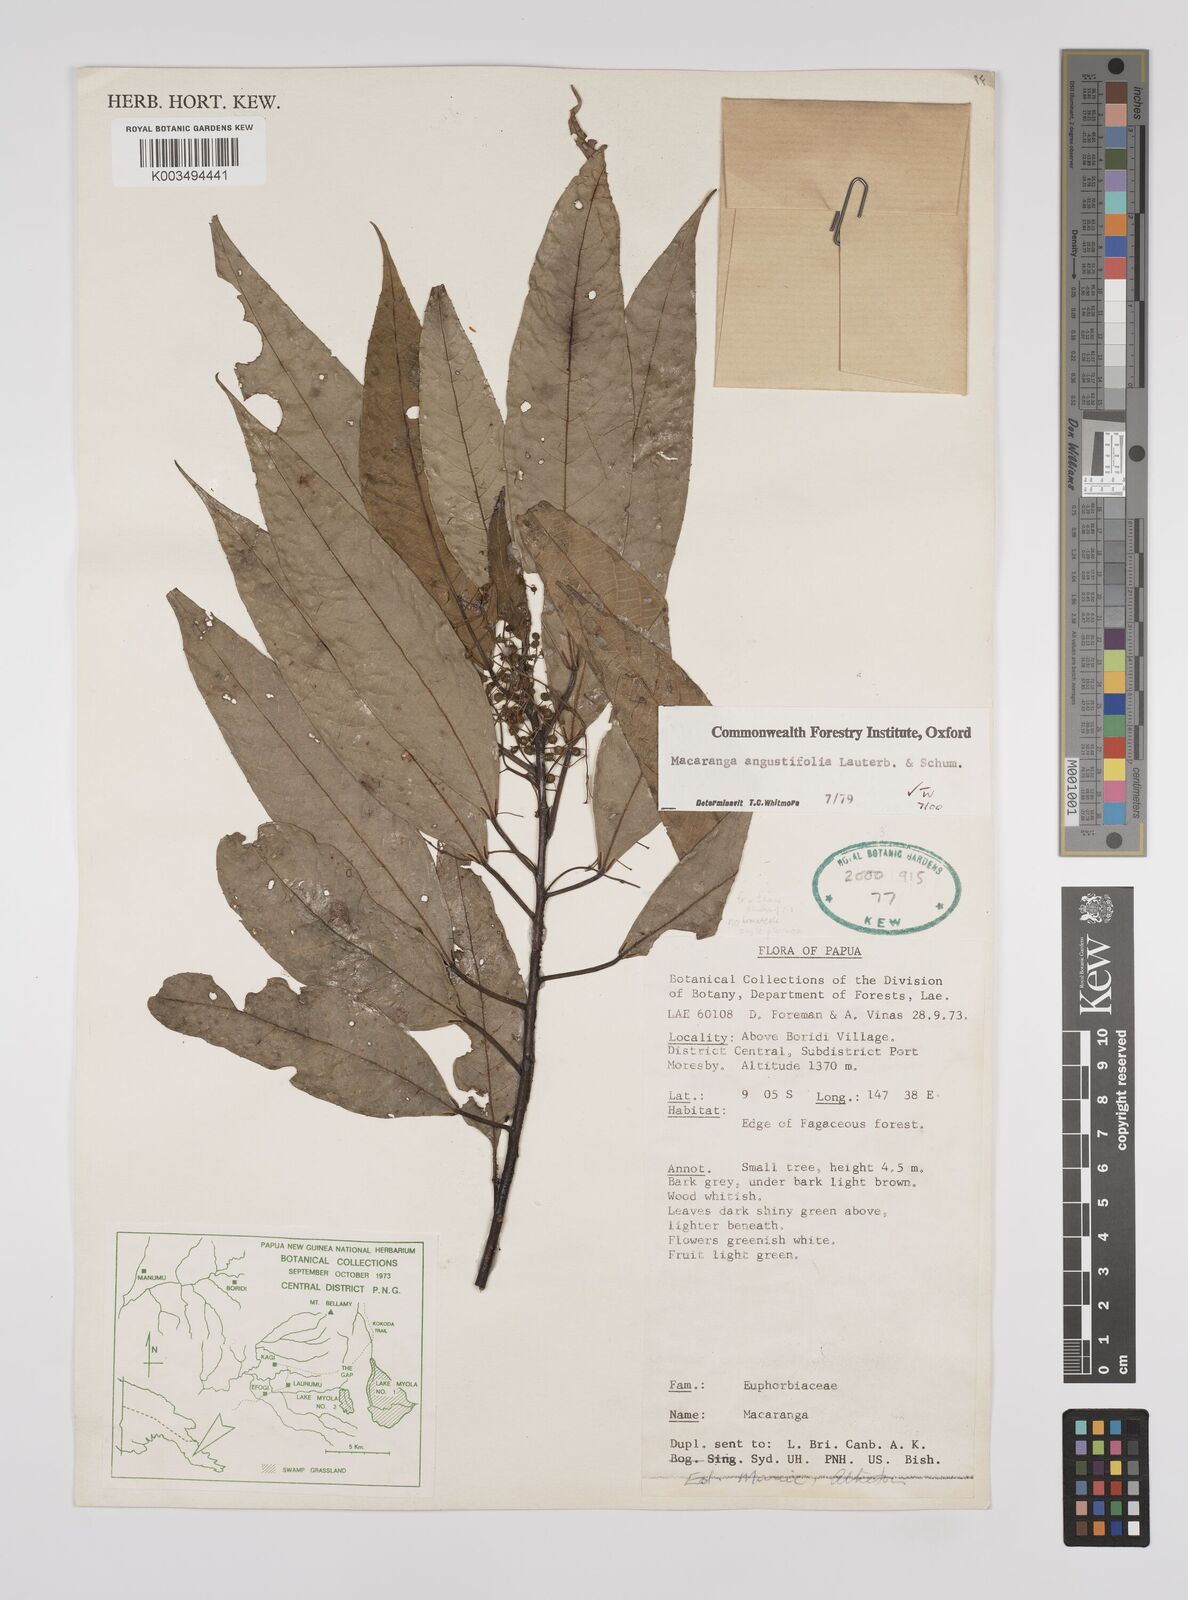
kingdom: Plantae
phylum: Tracheophyta
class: Magnoliopsida
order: Malpighiales
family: Euphorbiaceae
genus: Macaranga
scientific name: Macaranga angustifolia
